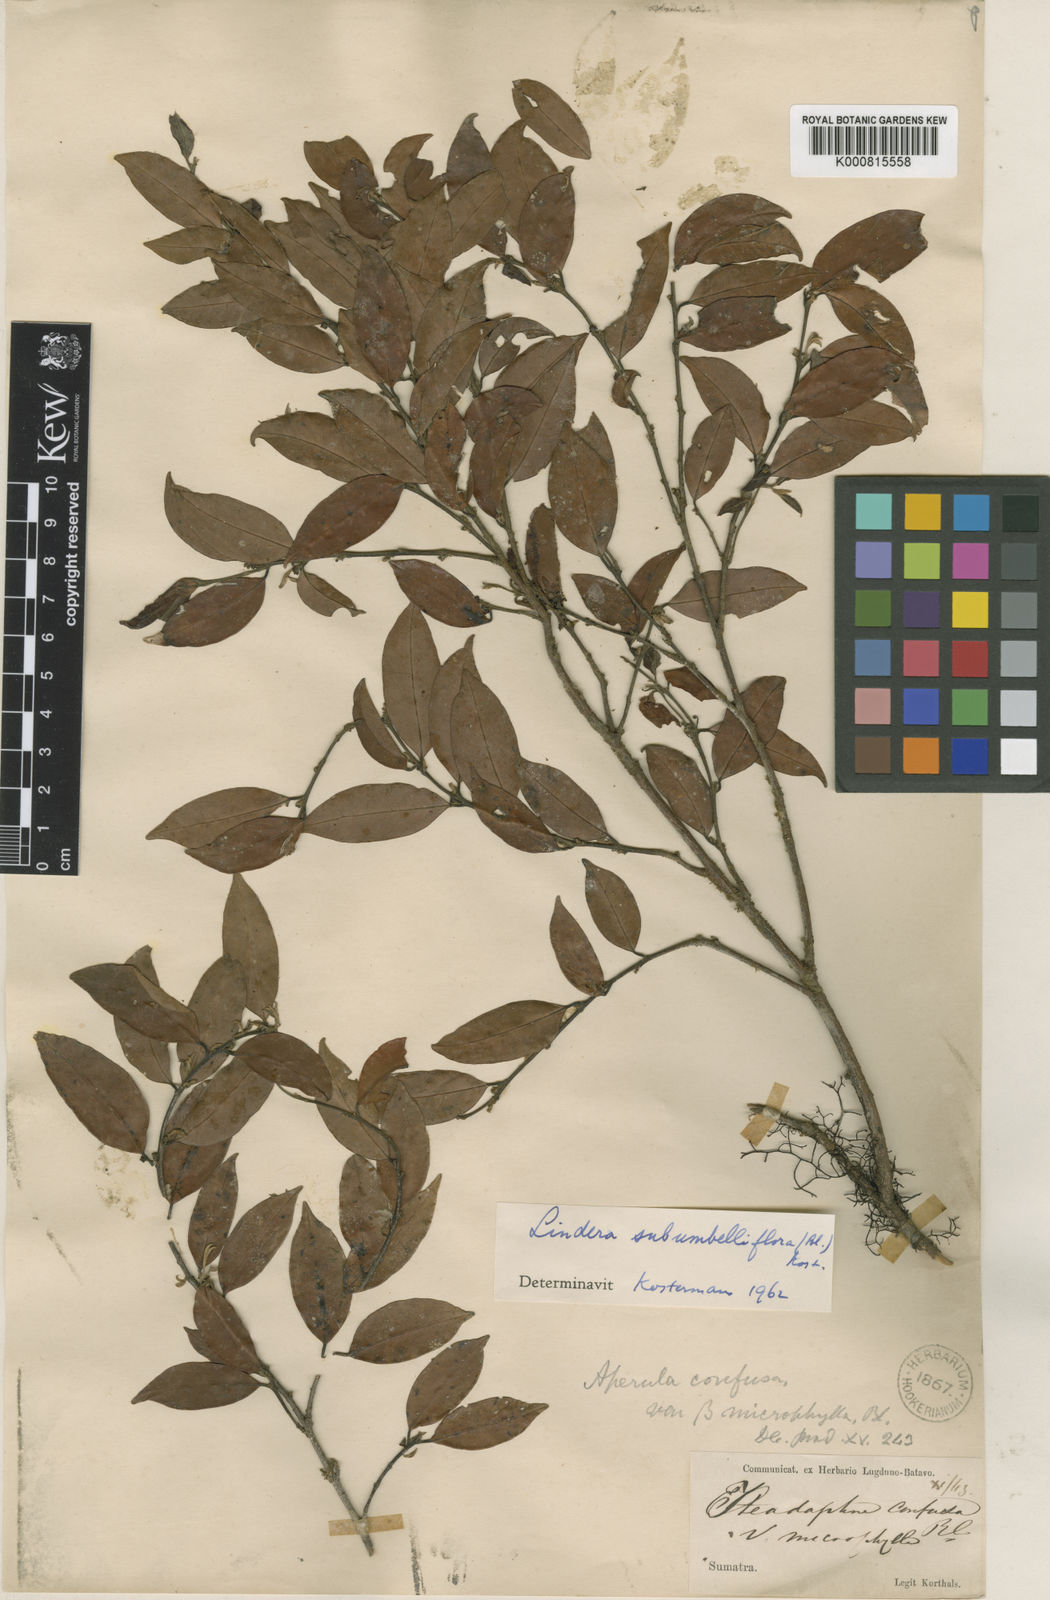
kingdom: Plantae
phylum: Tracheophyta
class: Magnoliopsida
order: Laurales
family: Lauraceae
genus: Litsea
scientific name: Litsea subumbelliflora
